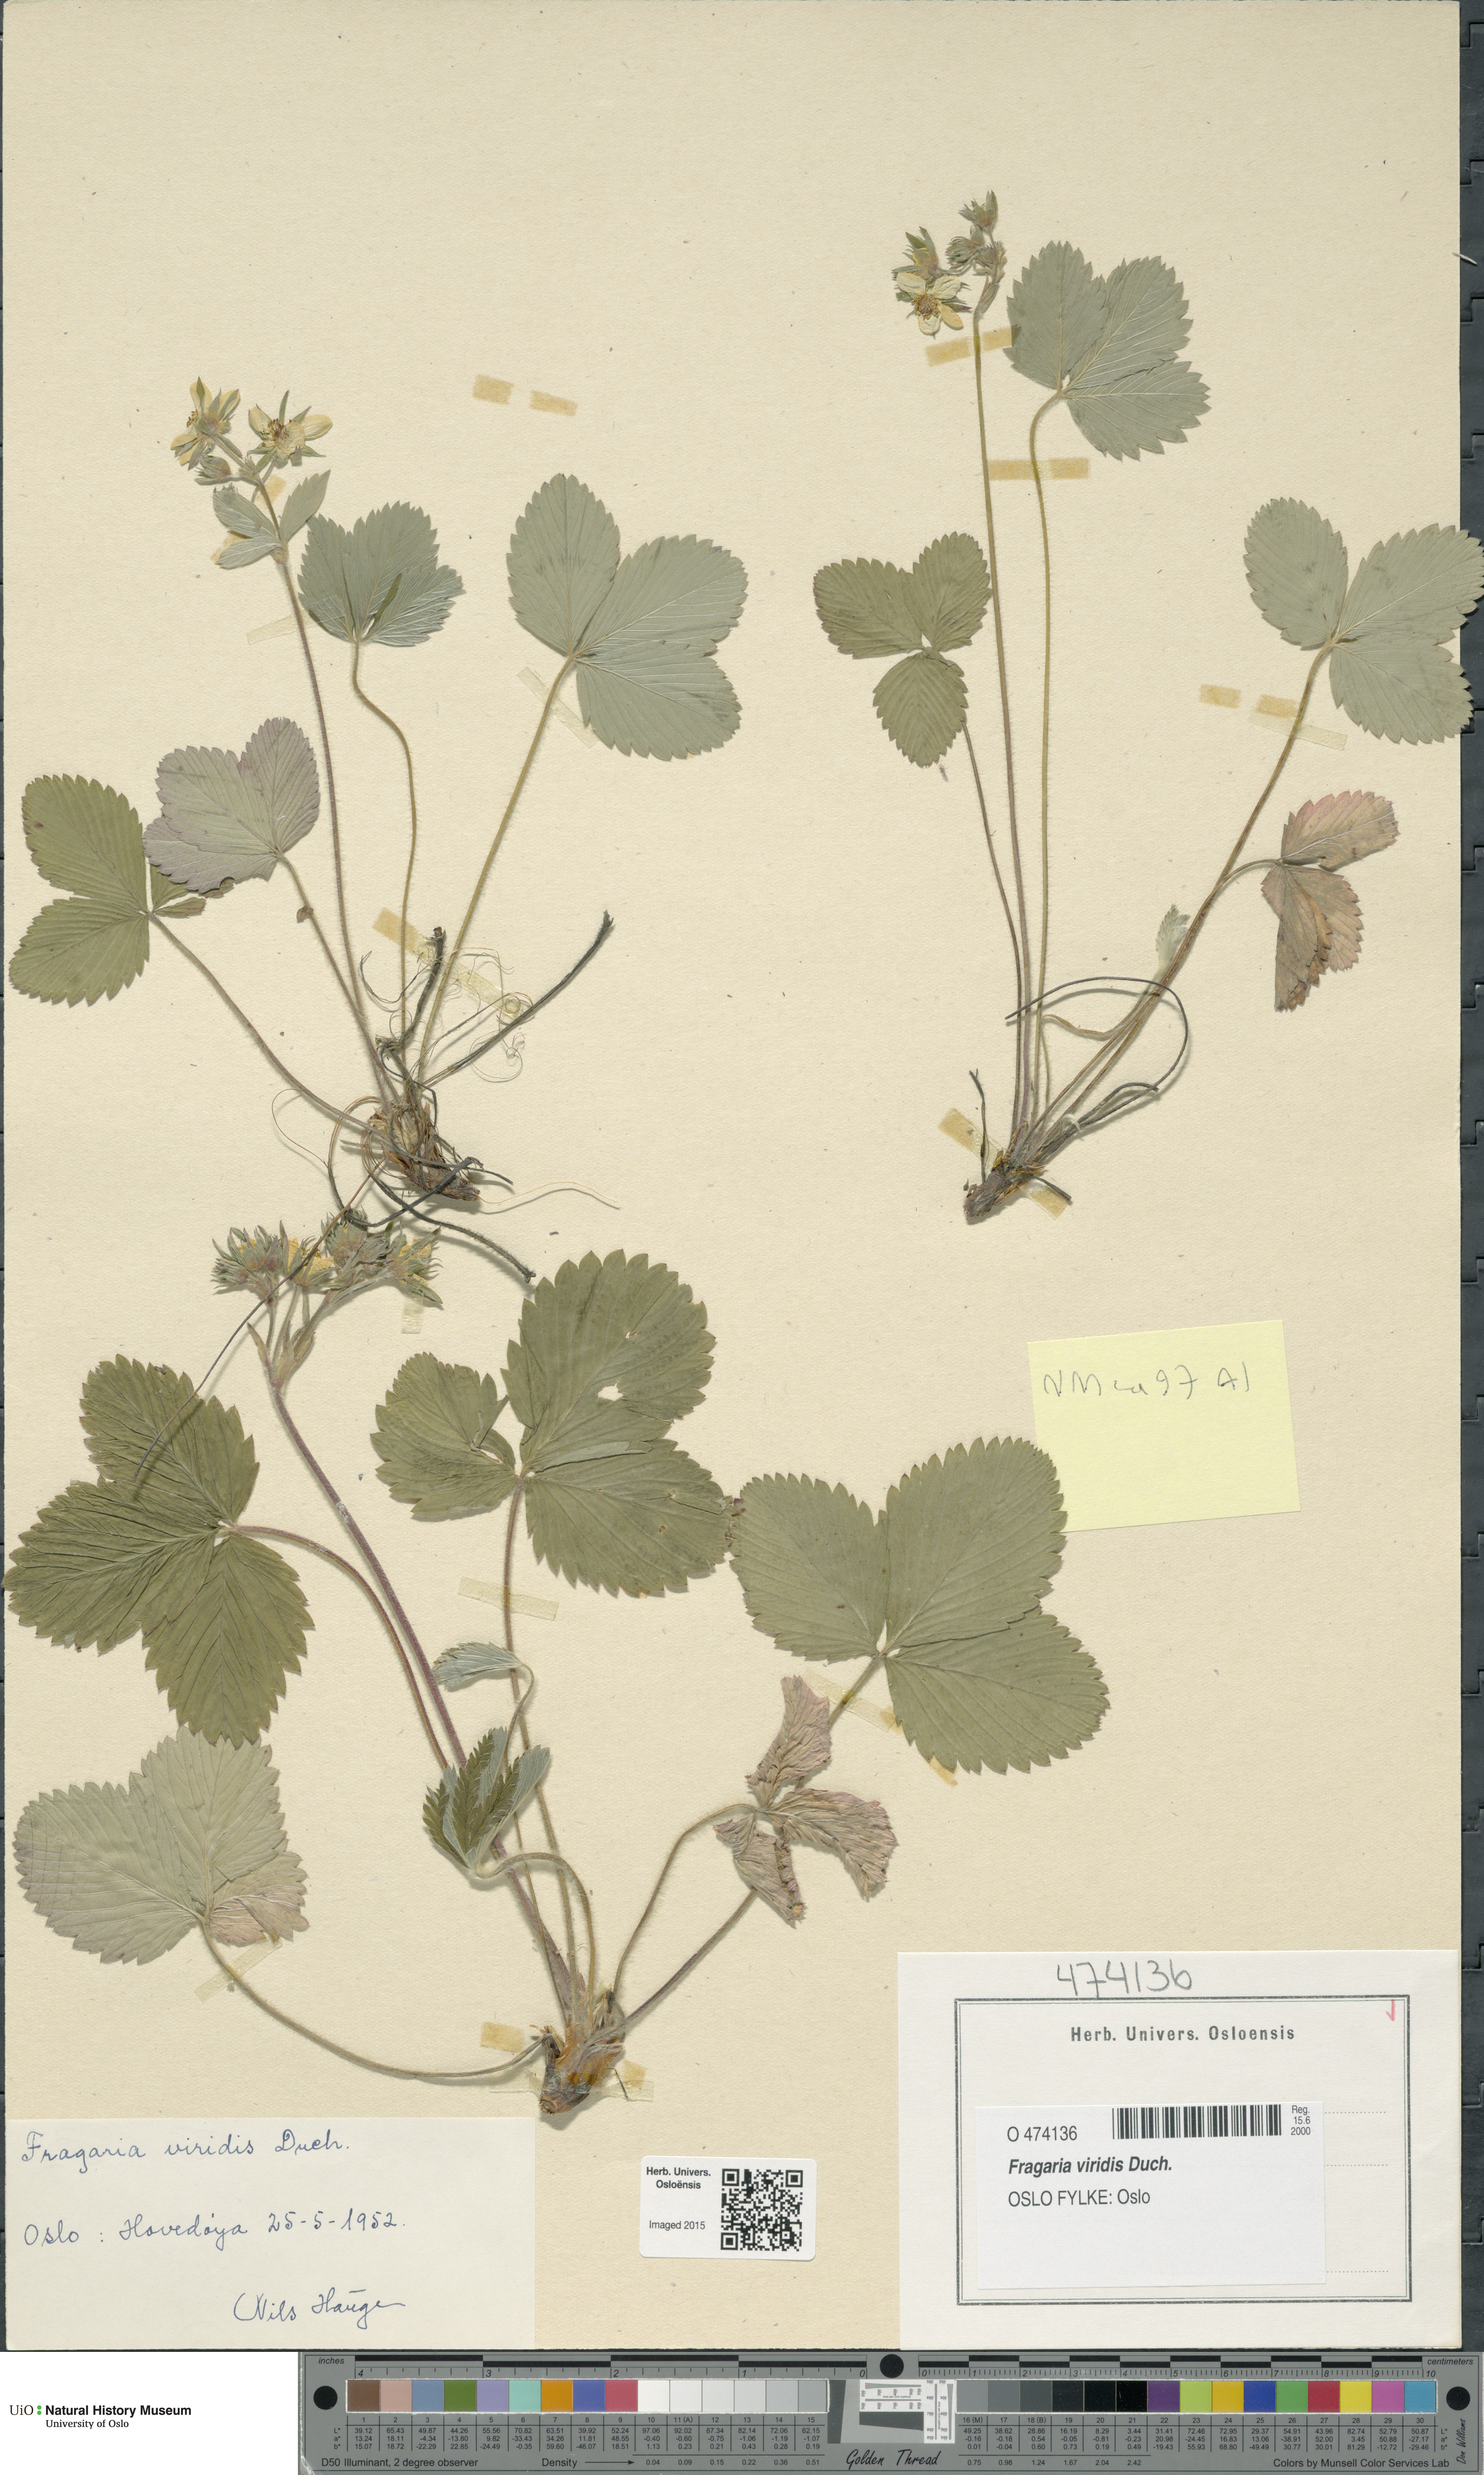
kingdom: Plantae
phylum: Tracheophyta
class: Magnoliopsida
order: Rosales
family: Rosaceae
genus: Fragaria
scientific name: Fragaria viridis
